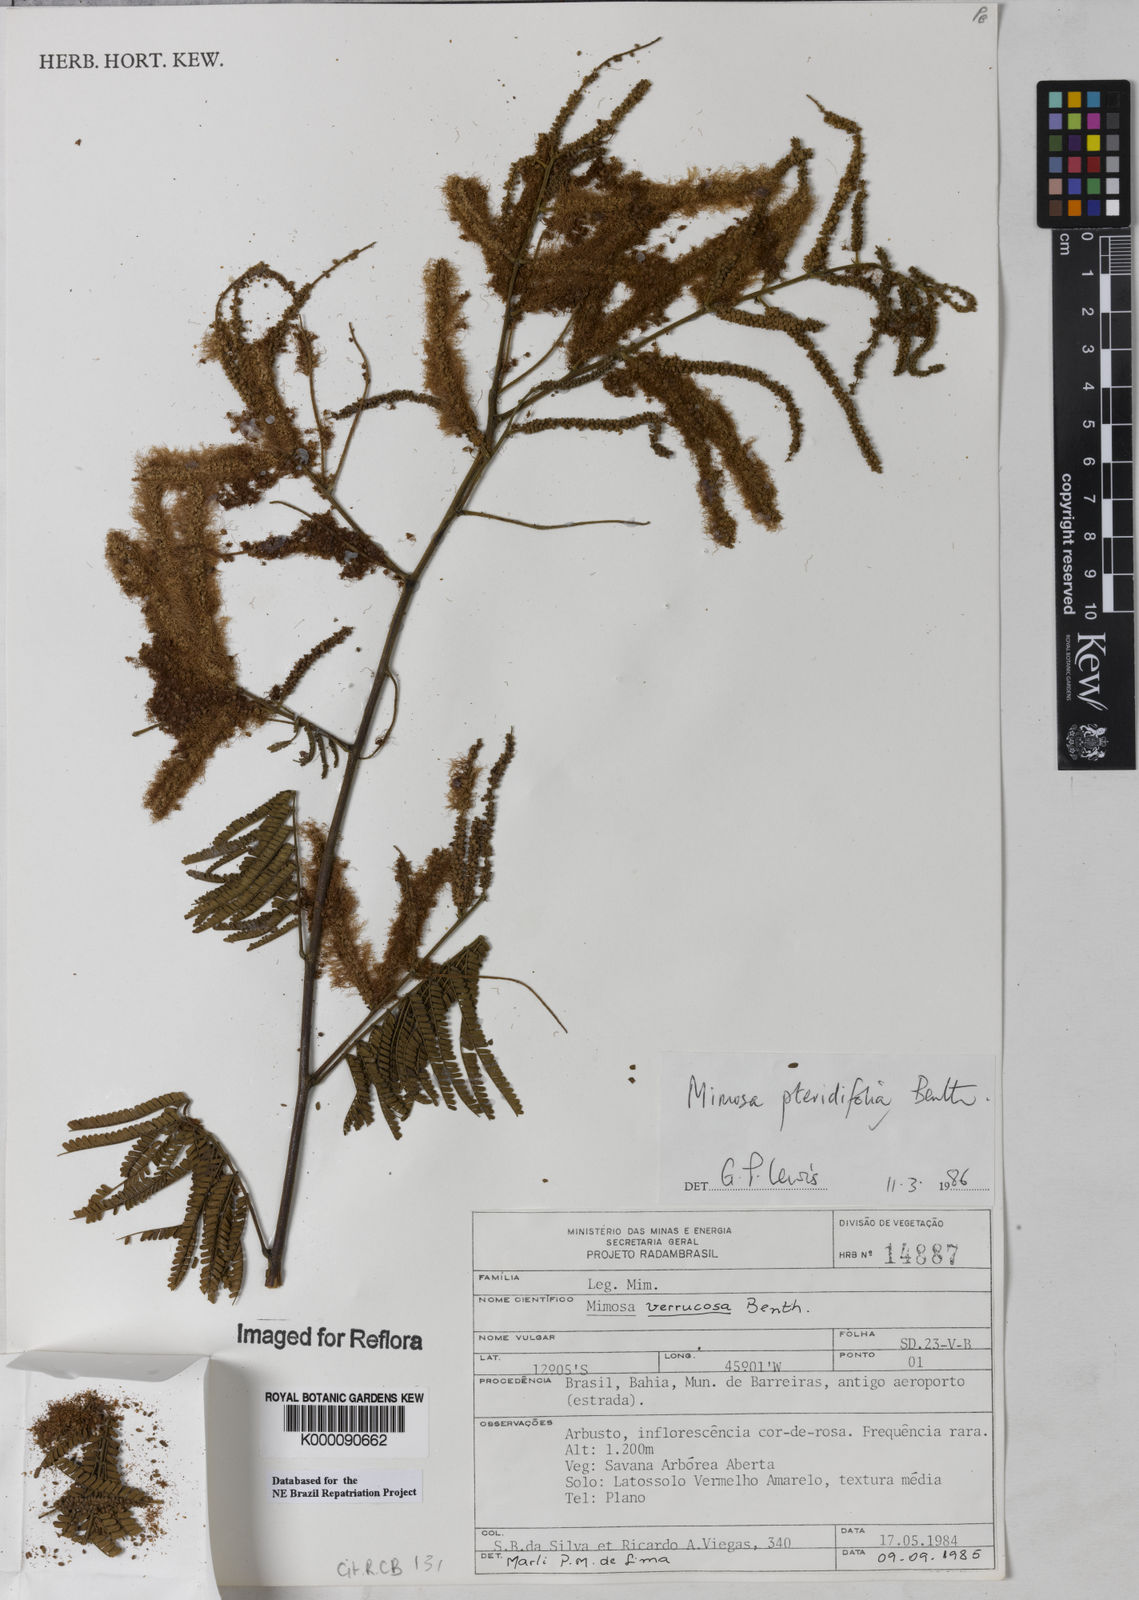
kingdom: Plantae
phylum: Tracheophyta
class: Magnoliopsida
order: Fabales
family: Fabaceae
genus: Mimosa
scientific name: Mimosa pteridifolia
